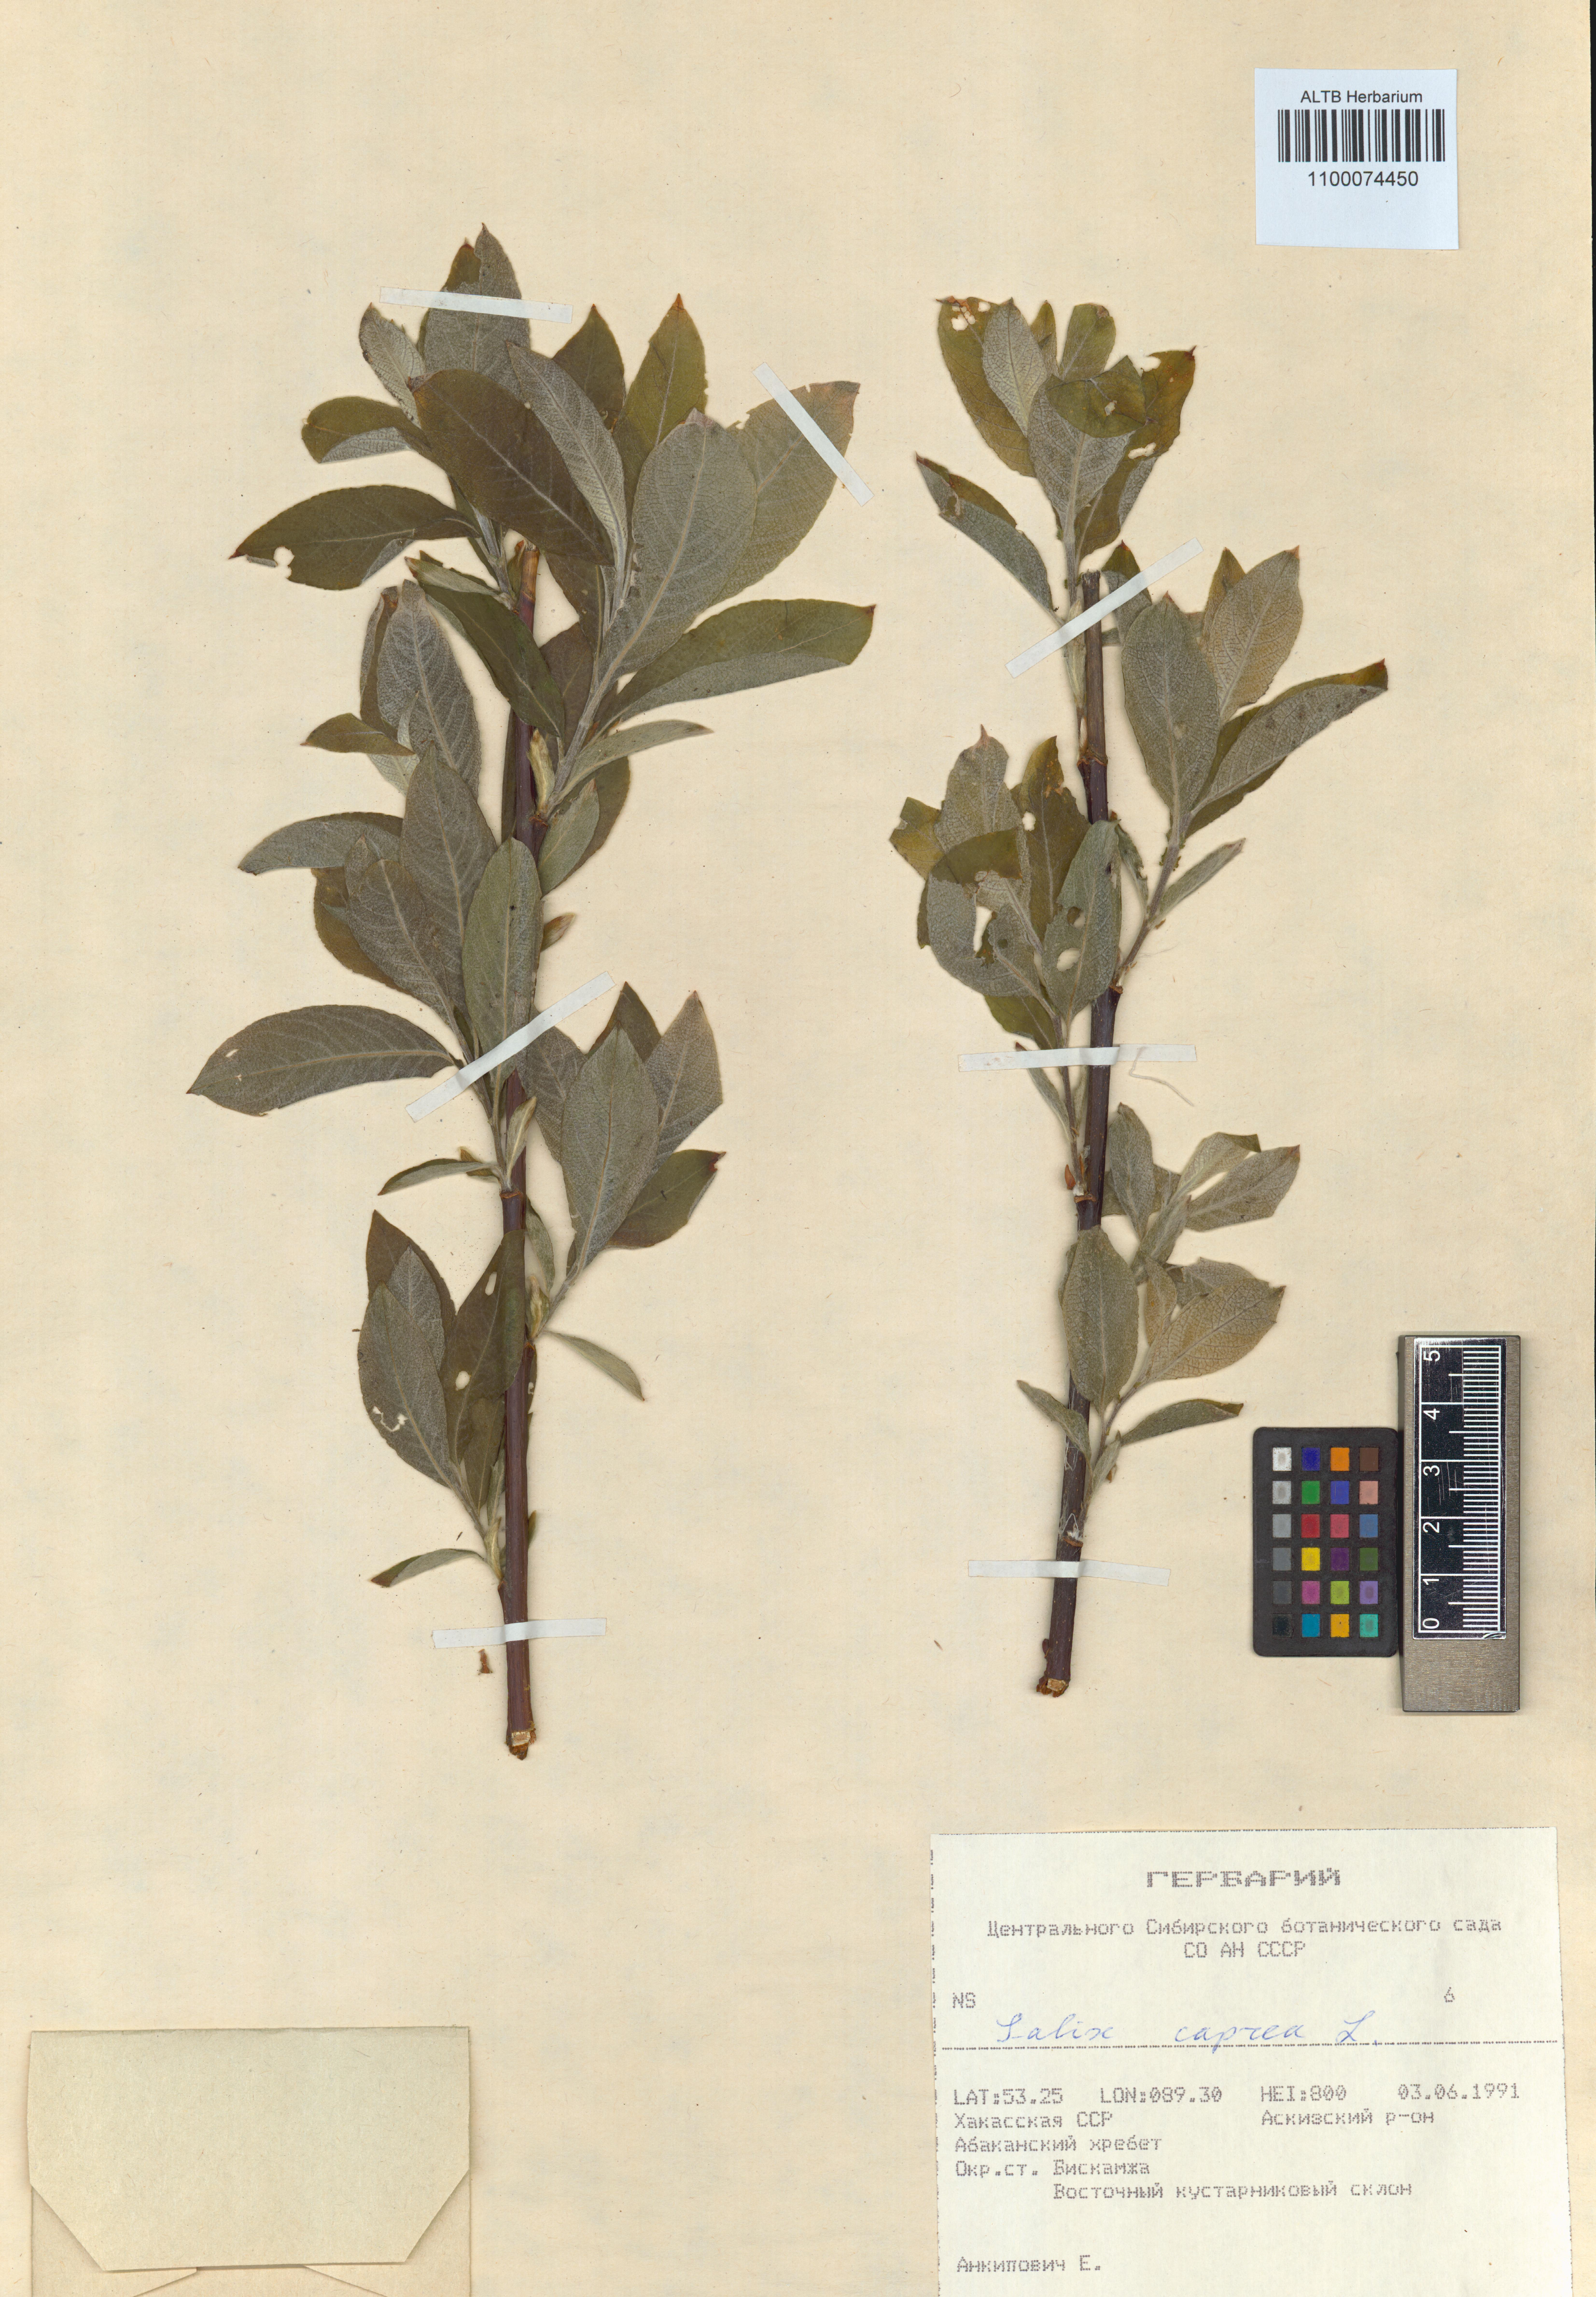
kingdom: Plantae
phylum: Tracheophyta
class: Magnoliopsida
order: Malpighiales
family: Salicaceae
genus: Salix
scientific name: Salix caprea
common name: Goat willow
